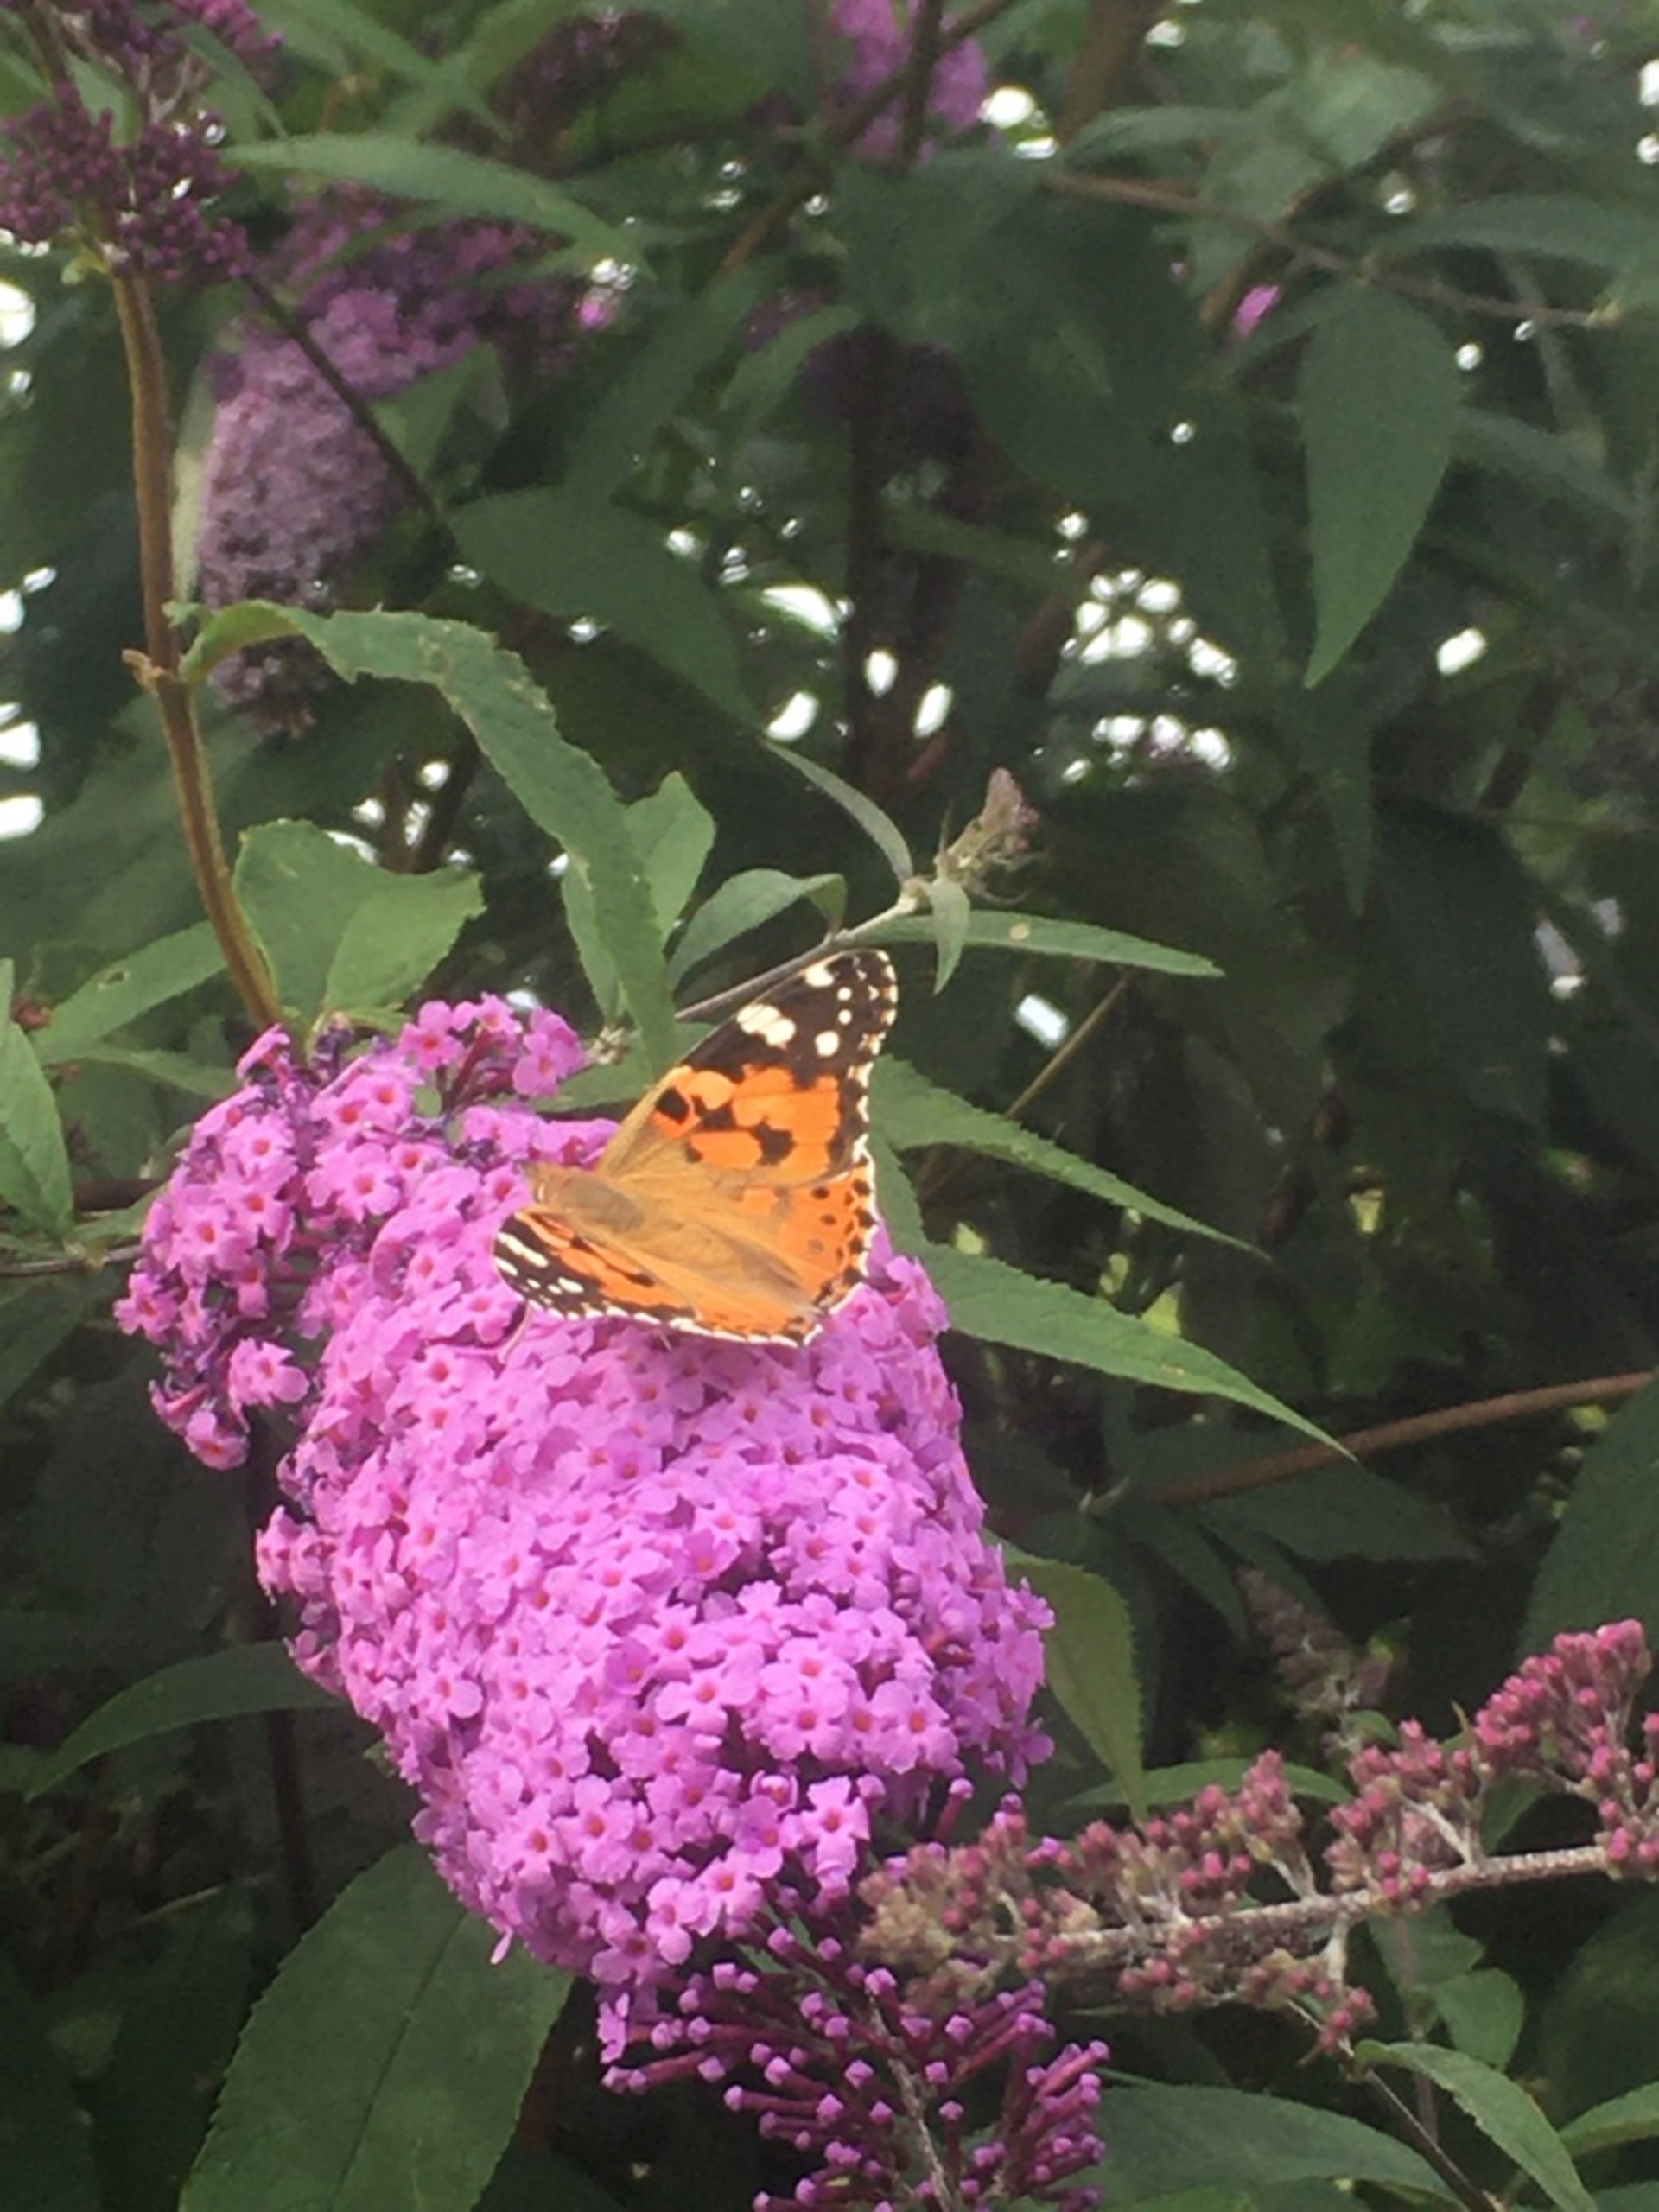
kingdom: Animalia
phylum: Arthropoda
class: Insecta
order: Lepidoptera
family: Nymphalidae
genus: Vanessa
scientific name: Vanessa cardui
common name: Tidselsommerfugl
